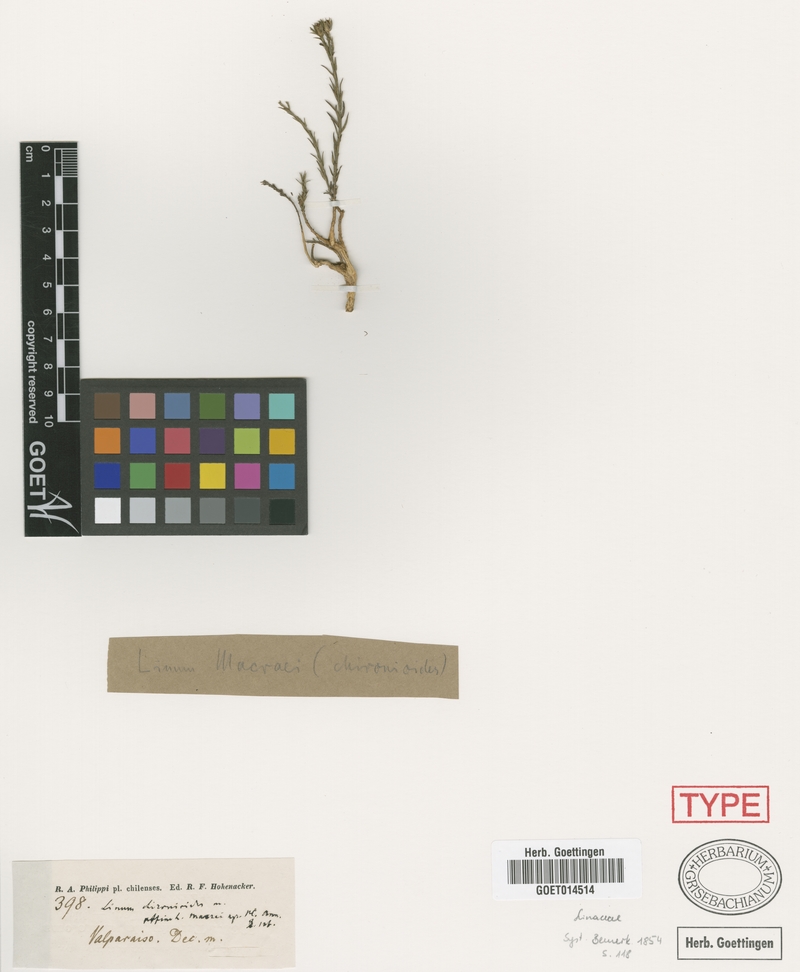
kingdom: Plantae
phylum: Tracheophyta
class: Magnoliopsida
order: Malpighiales
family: Linaceae
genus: Linum
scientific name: Linum macraei
